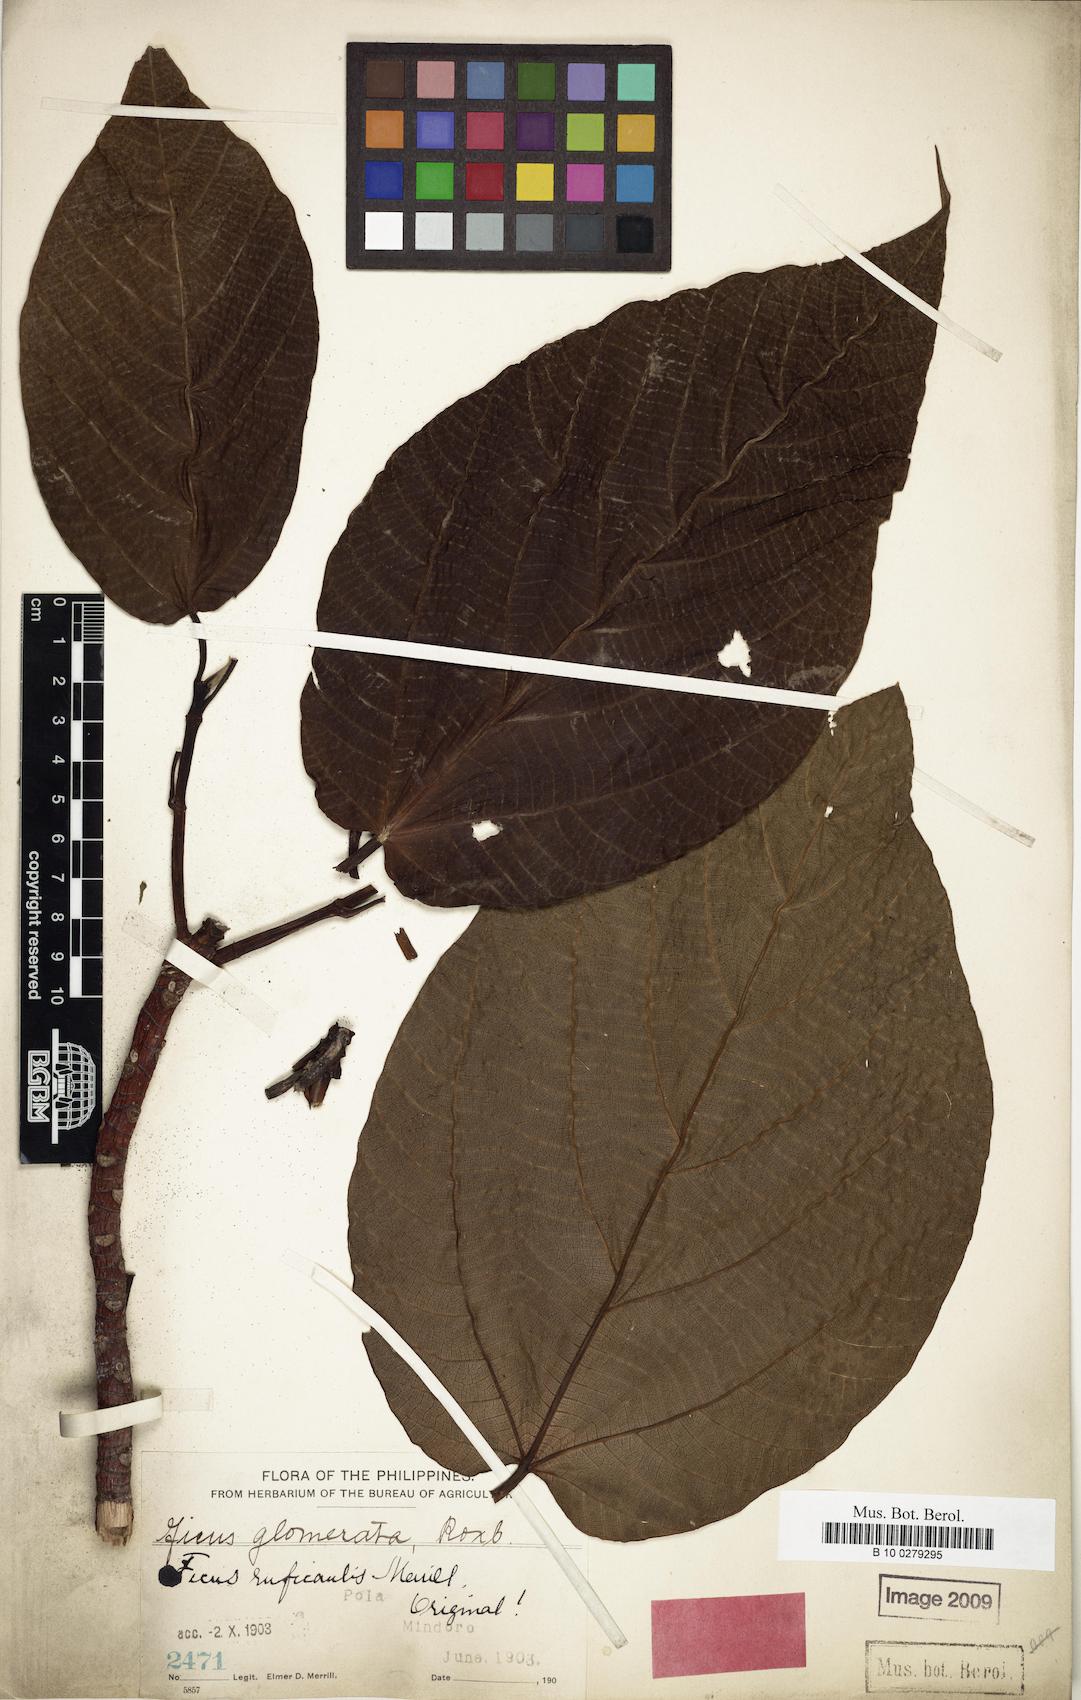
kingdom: Plantae
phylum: Tracheophyta
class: Magnoliopsida
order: Rosales
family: Moraceae
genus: Ficus
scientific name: Ficus ruficaulis
